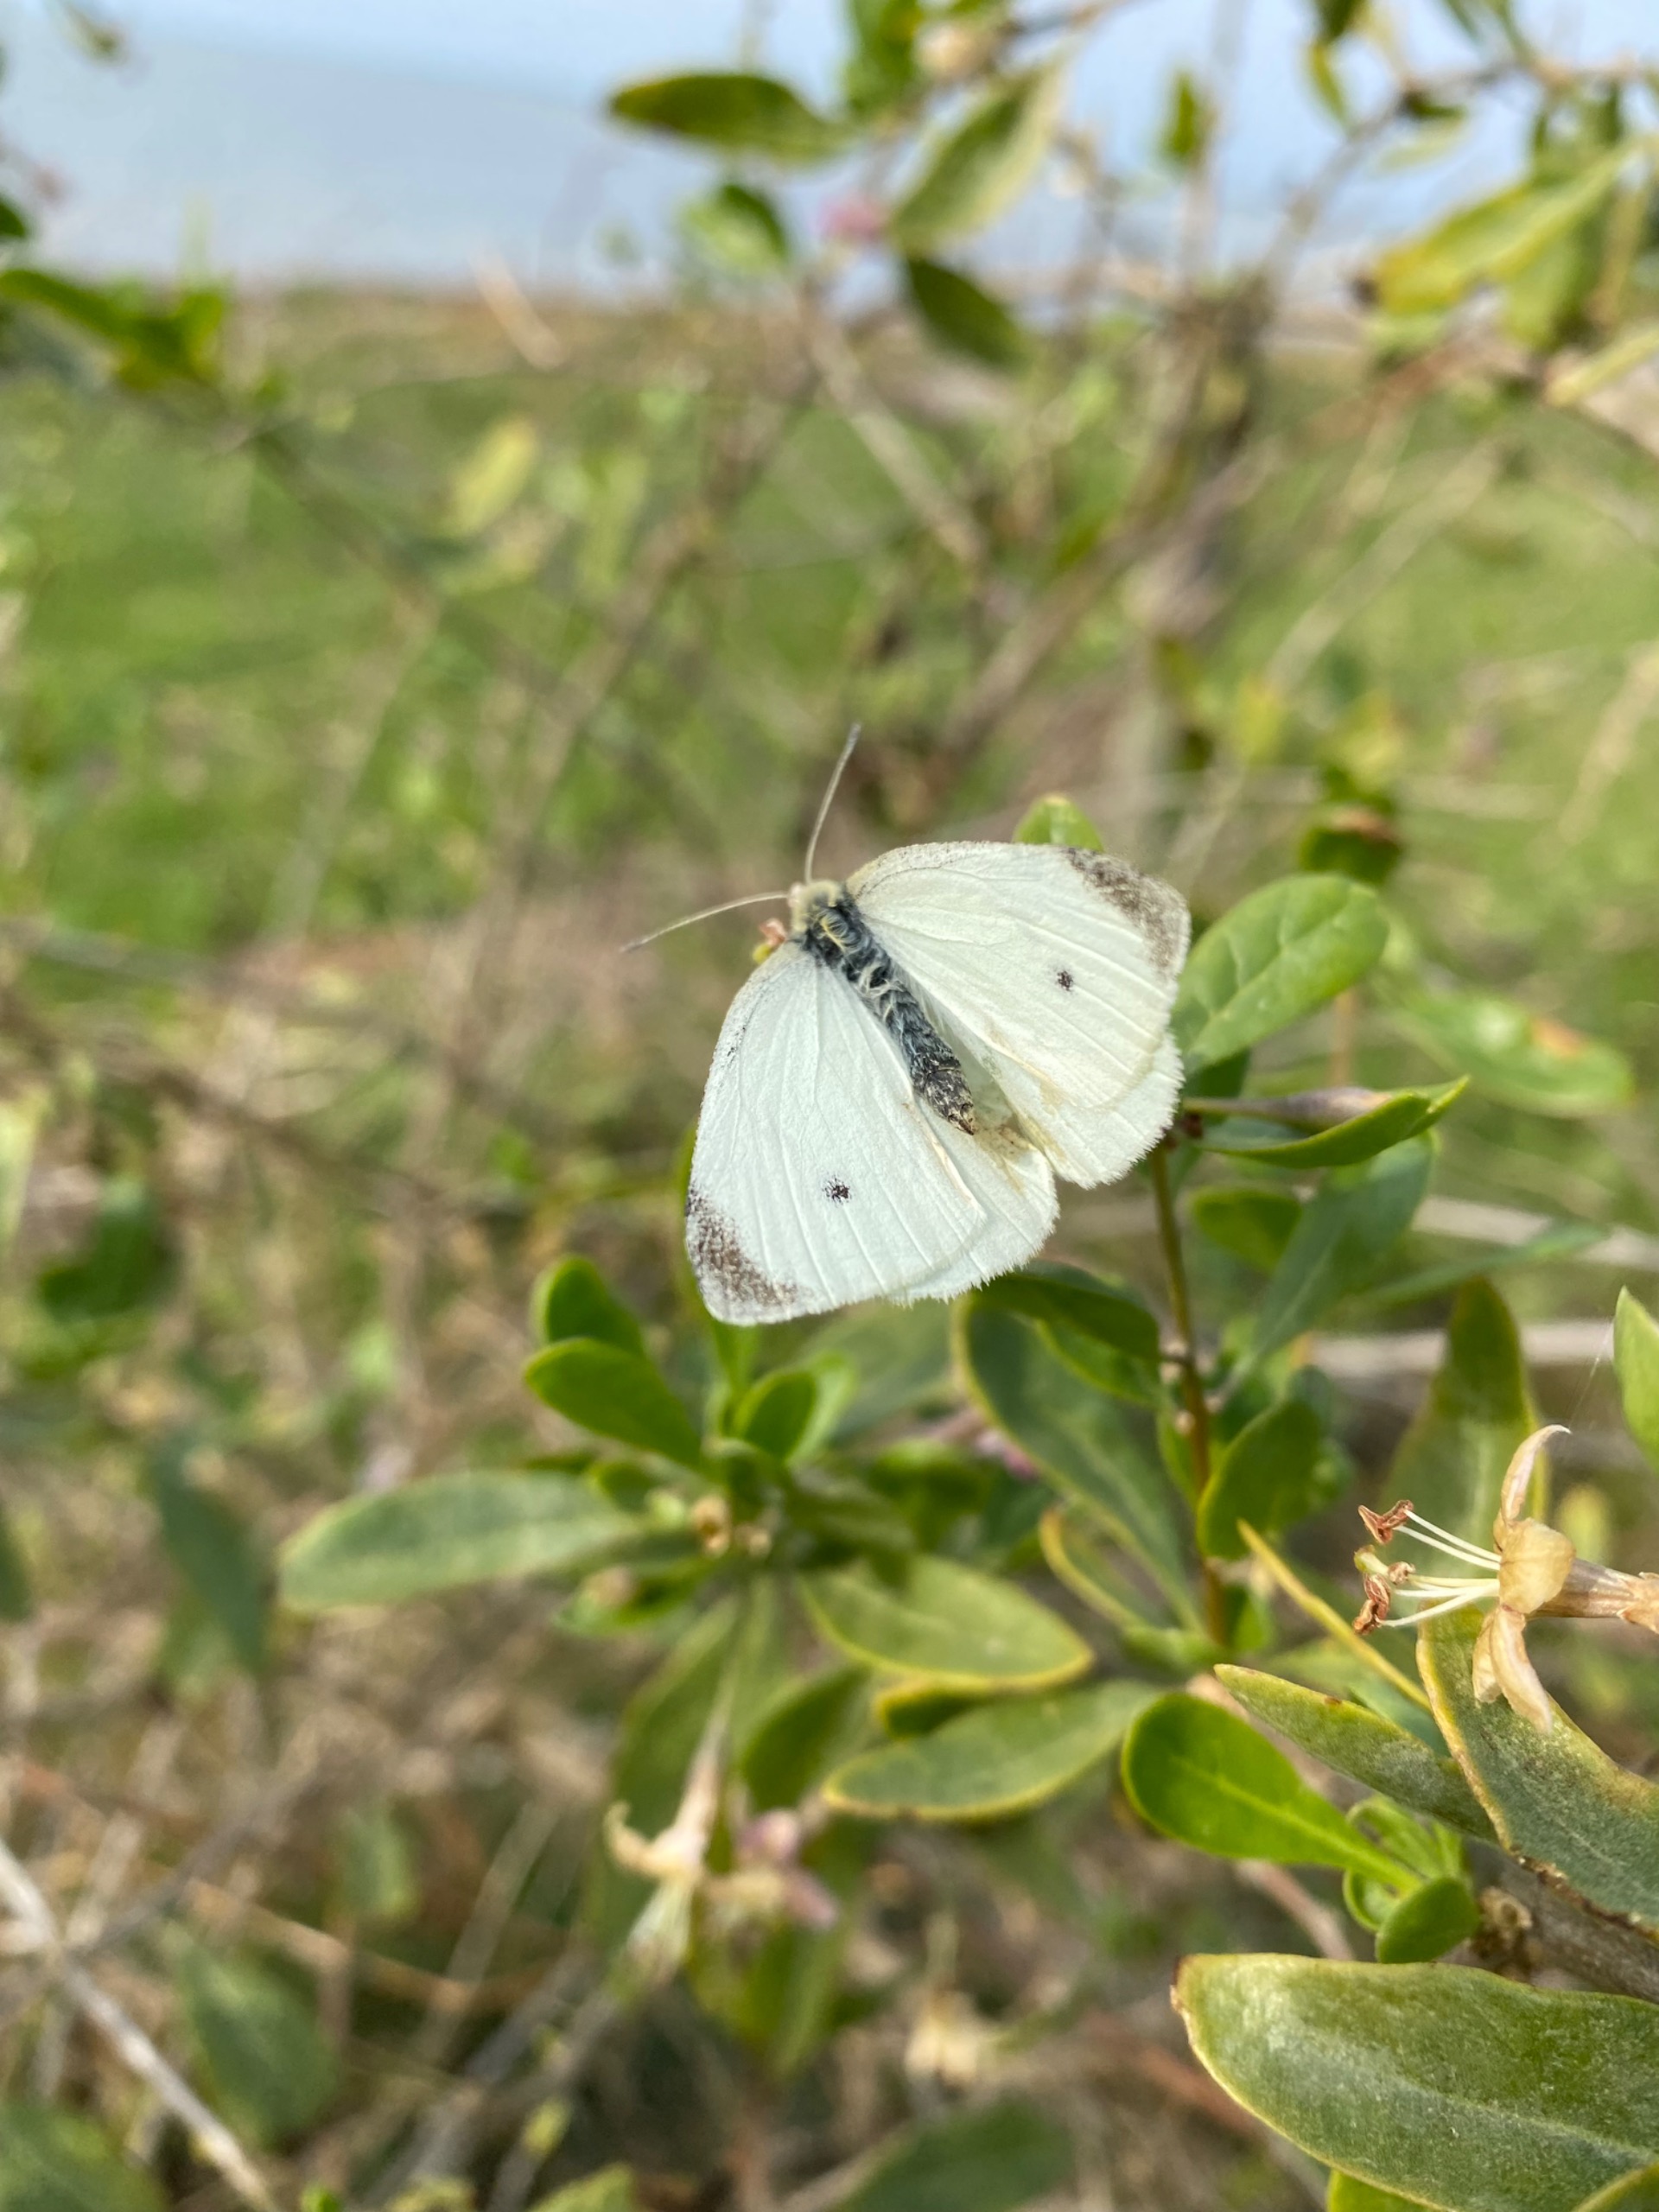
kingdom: Animalia
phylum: Arthropoda
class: Insecta
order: Lepidoptera
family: Pieridae
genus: Pieris
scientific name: Pieris rapae
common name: Lille kålsommerfugl
